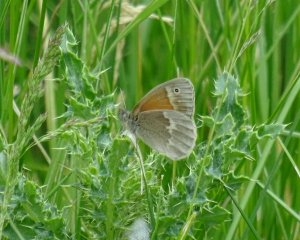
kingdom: Animalia
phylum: Arthropoda
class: Insecta
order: Lepidoptera
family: Nymphalidae
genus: Coenonympha
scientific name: Coenonympha tullia
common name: Large Heath
